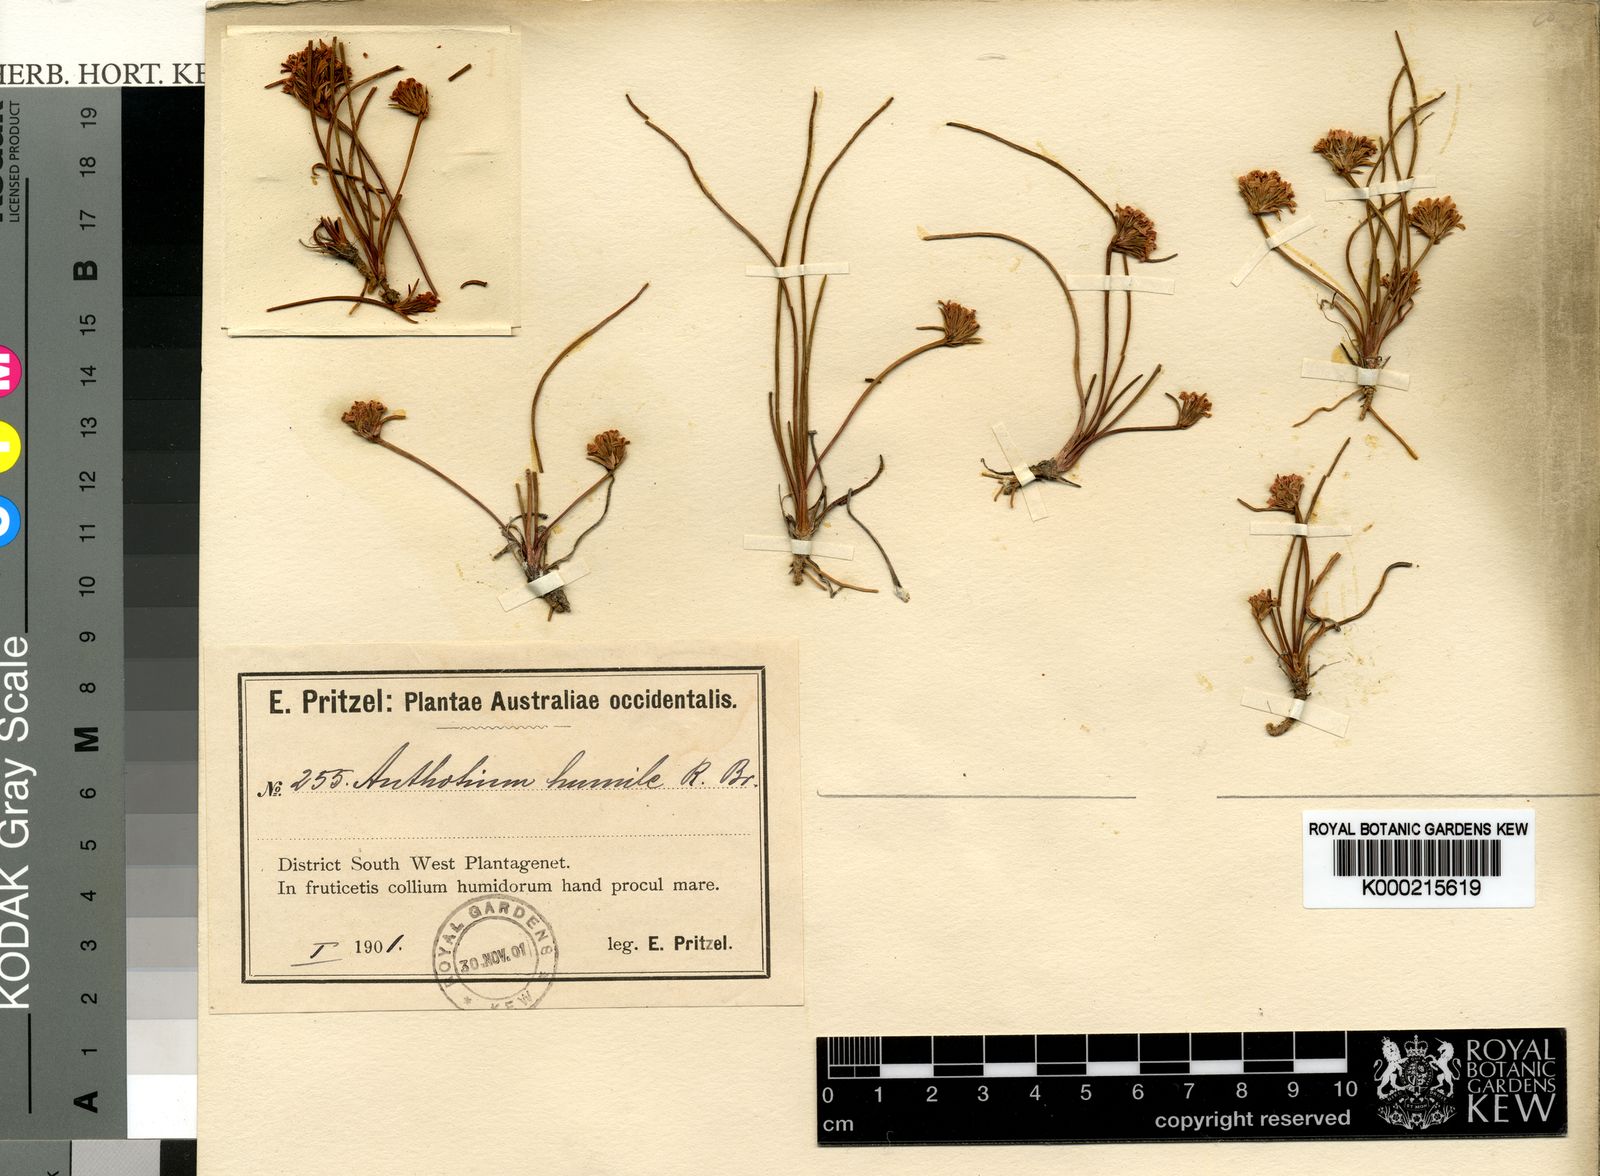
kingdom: Plantae
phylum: Tracheophyta
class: Magnoliopsida
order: Asterales
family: Goodeniaceae
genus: Anthotium
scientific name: Anthotium humile
